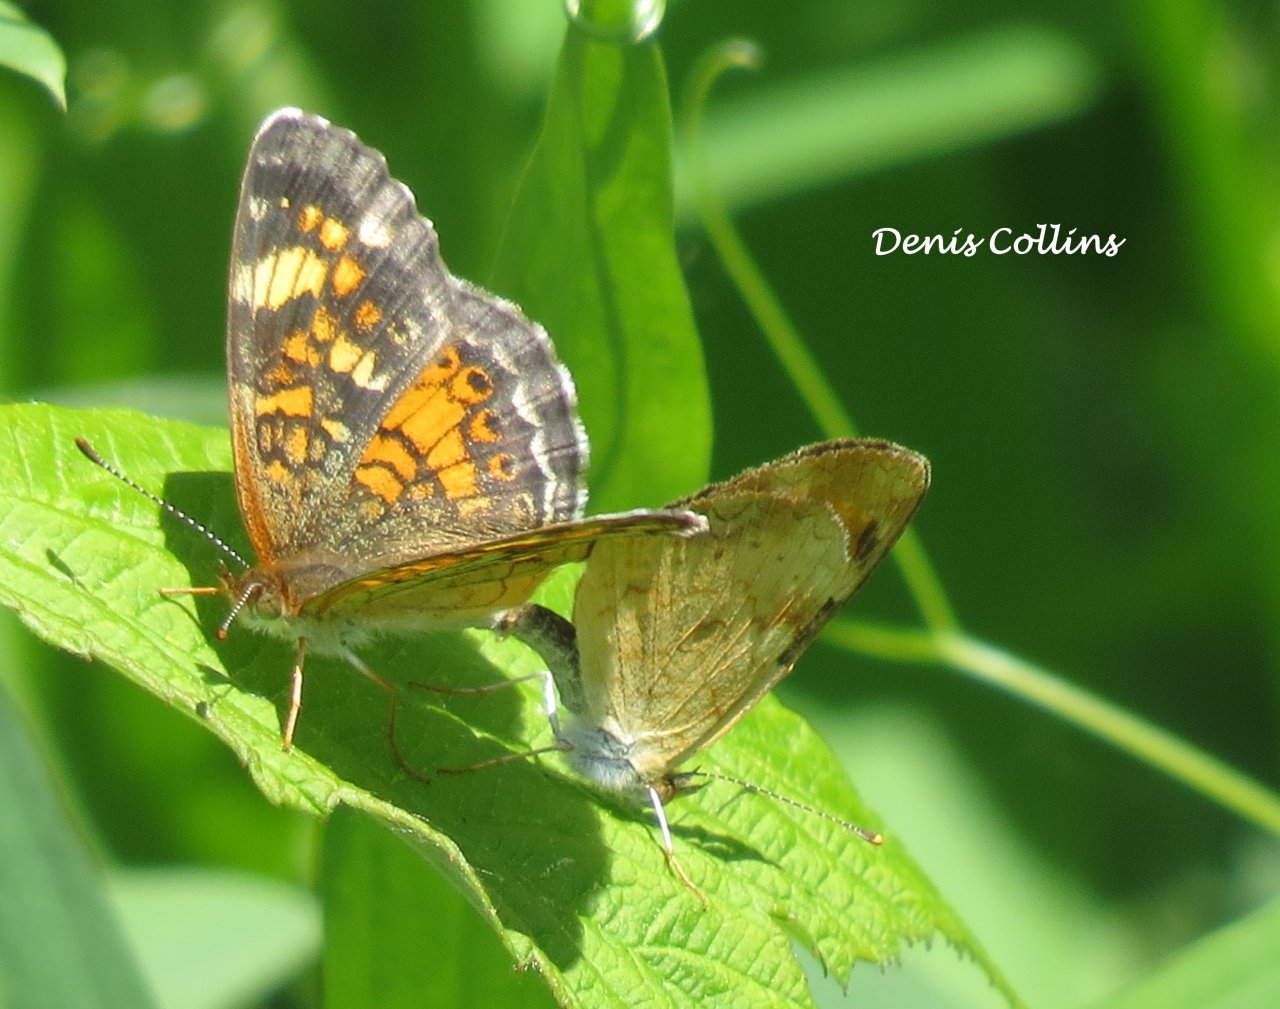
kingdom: Animalia
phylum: Arthropoda
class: Insecta
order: Lepidoptera
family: Nymphalidae
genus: Phyciodes
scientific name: Phyciodes tharos
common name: Northern Crescent
